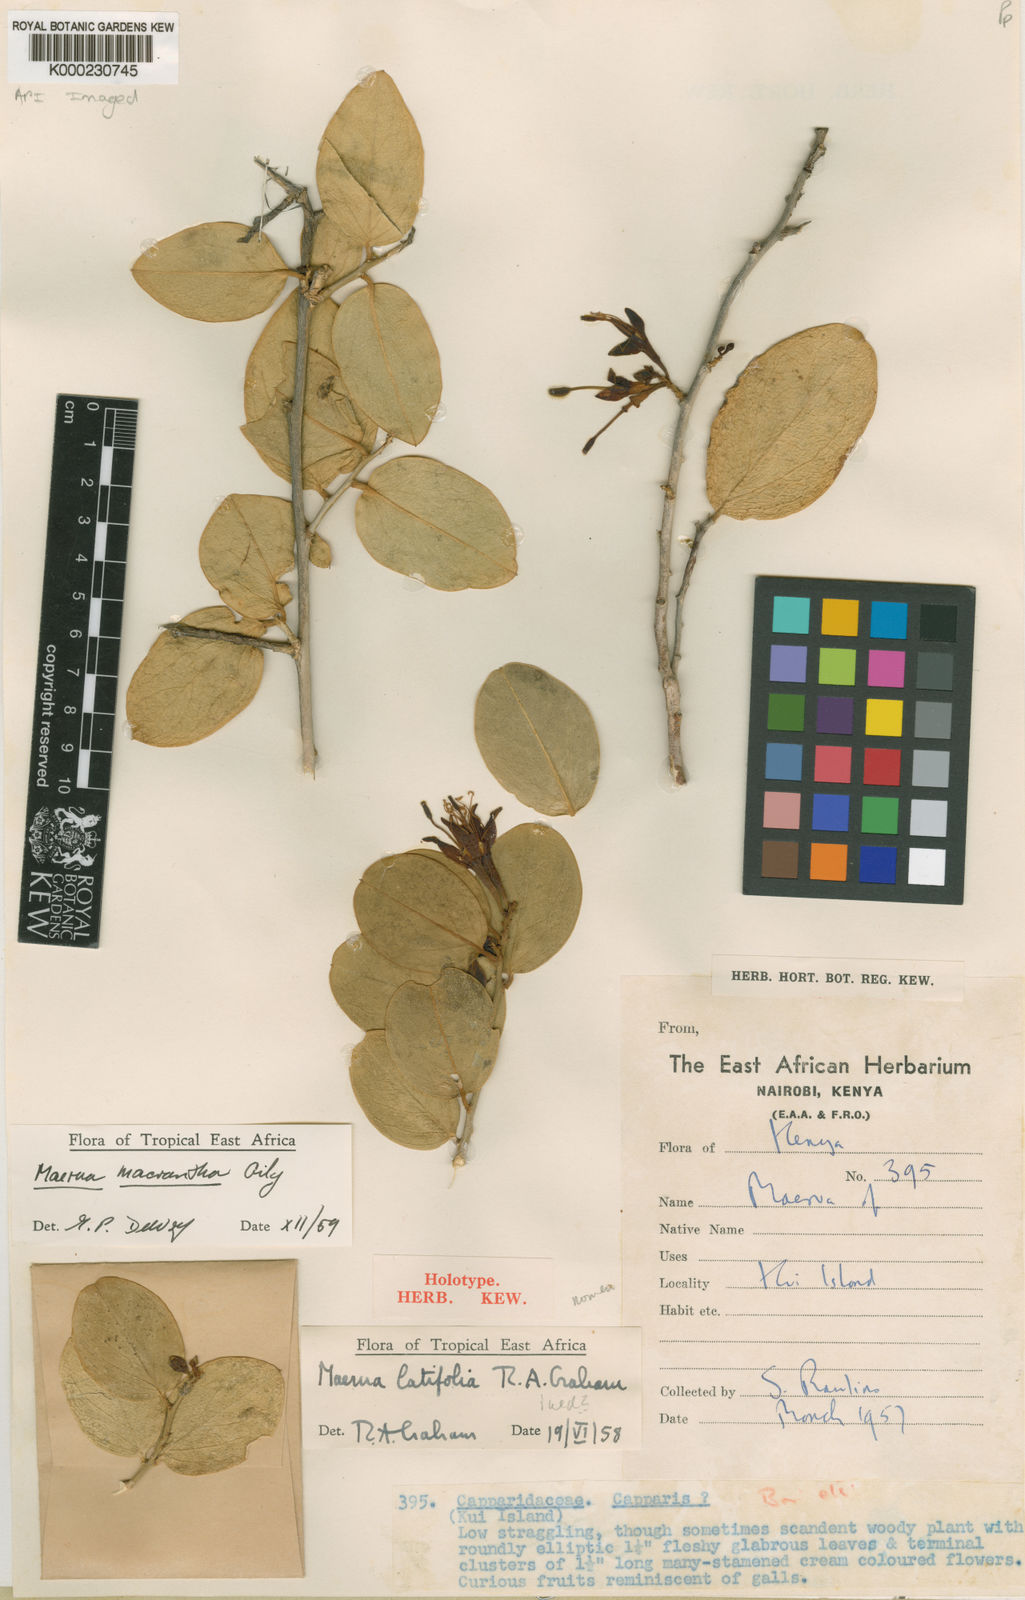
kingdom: Plantae
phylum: Tracheophyta
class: Magnoliopsida
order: Brassicales
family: Capparaceae
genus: Maerua
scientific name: Maerua macrantha
